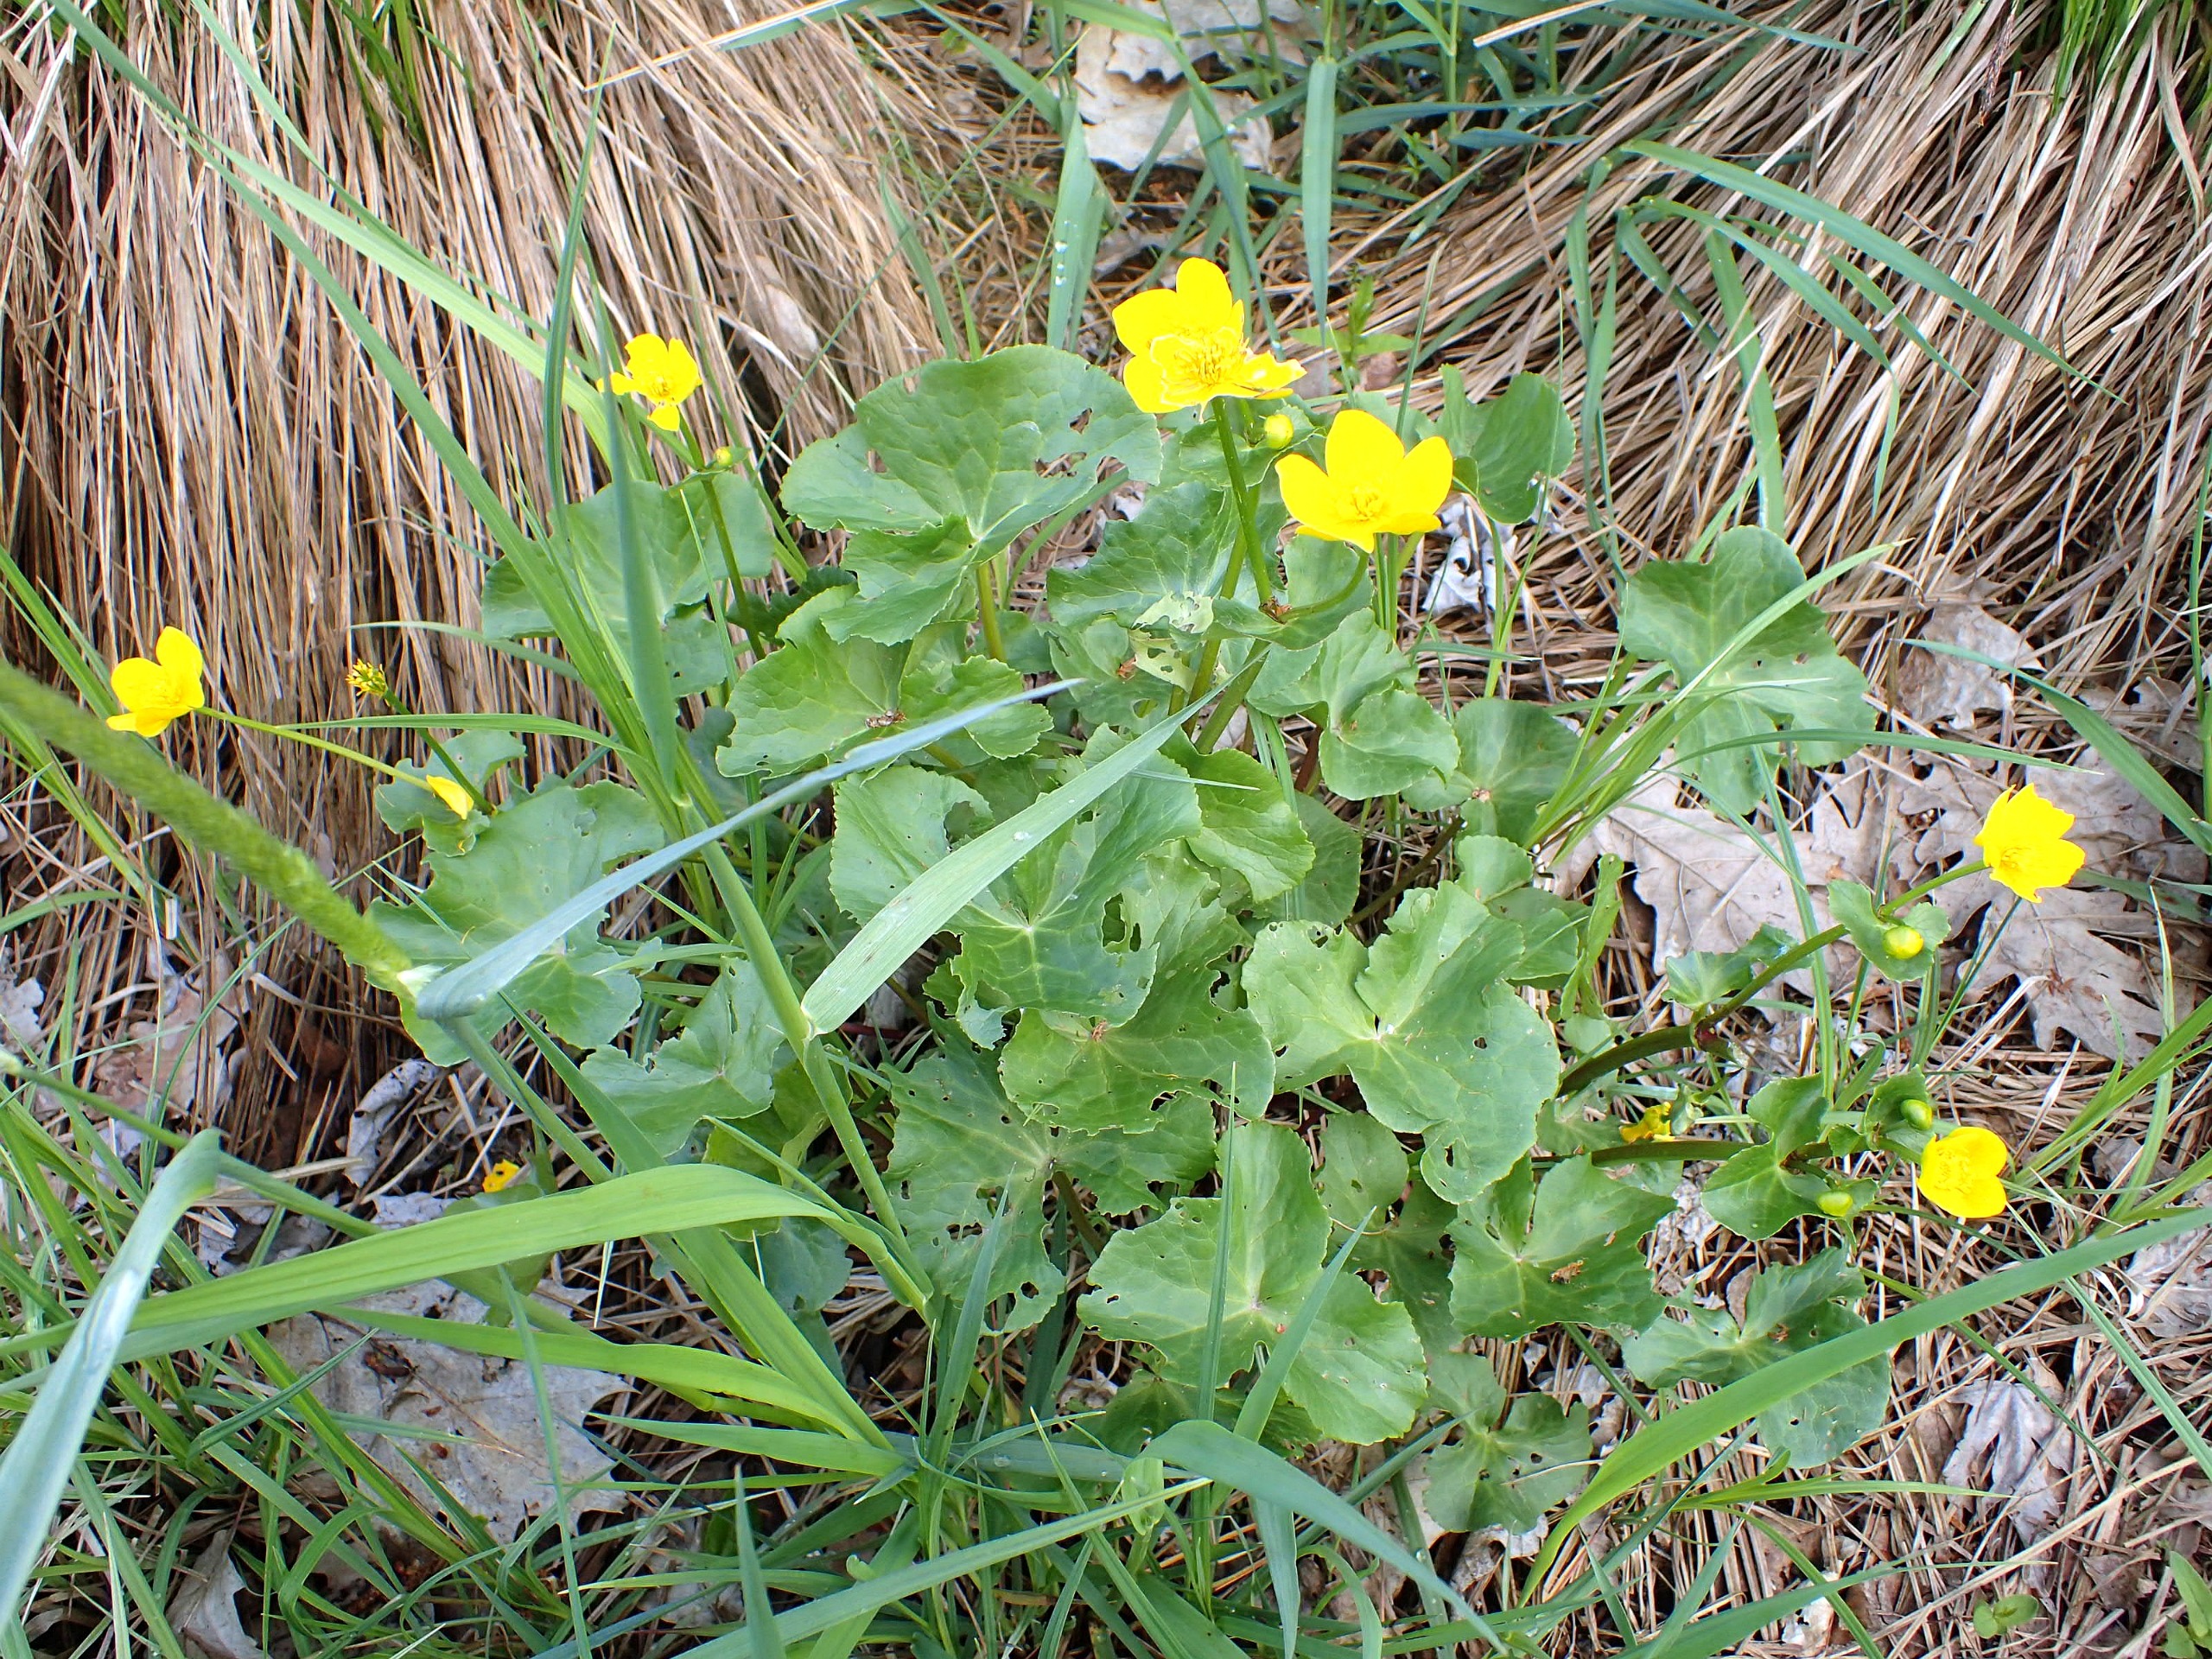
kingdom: Plantae
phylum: Tracheophyta
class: Magnoliopsida
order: Ranunculales
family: Ranunculaceae
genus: Caltha
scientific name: Caltha palustris
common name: Eng-kabbeleje
